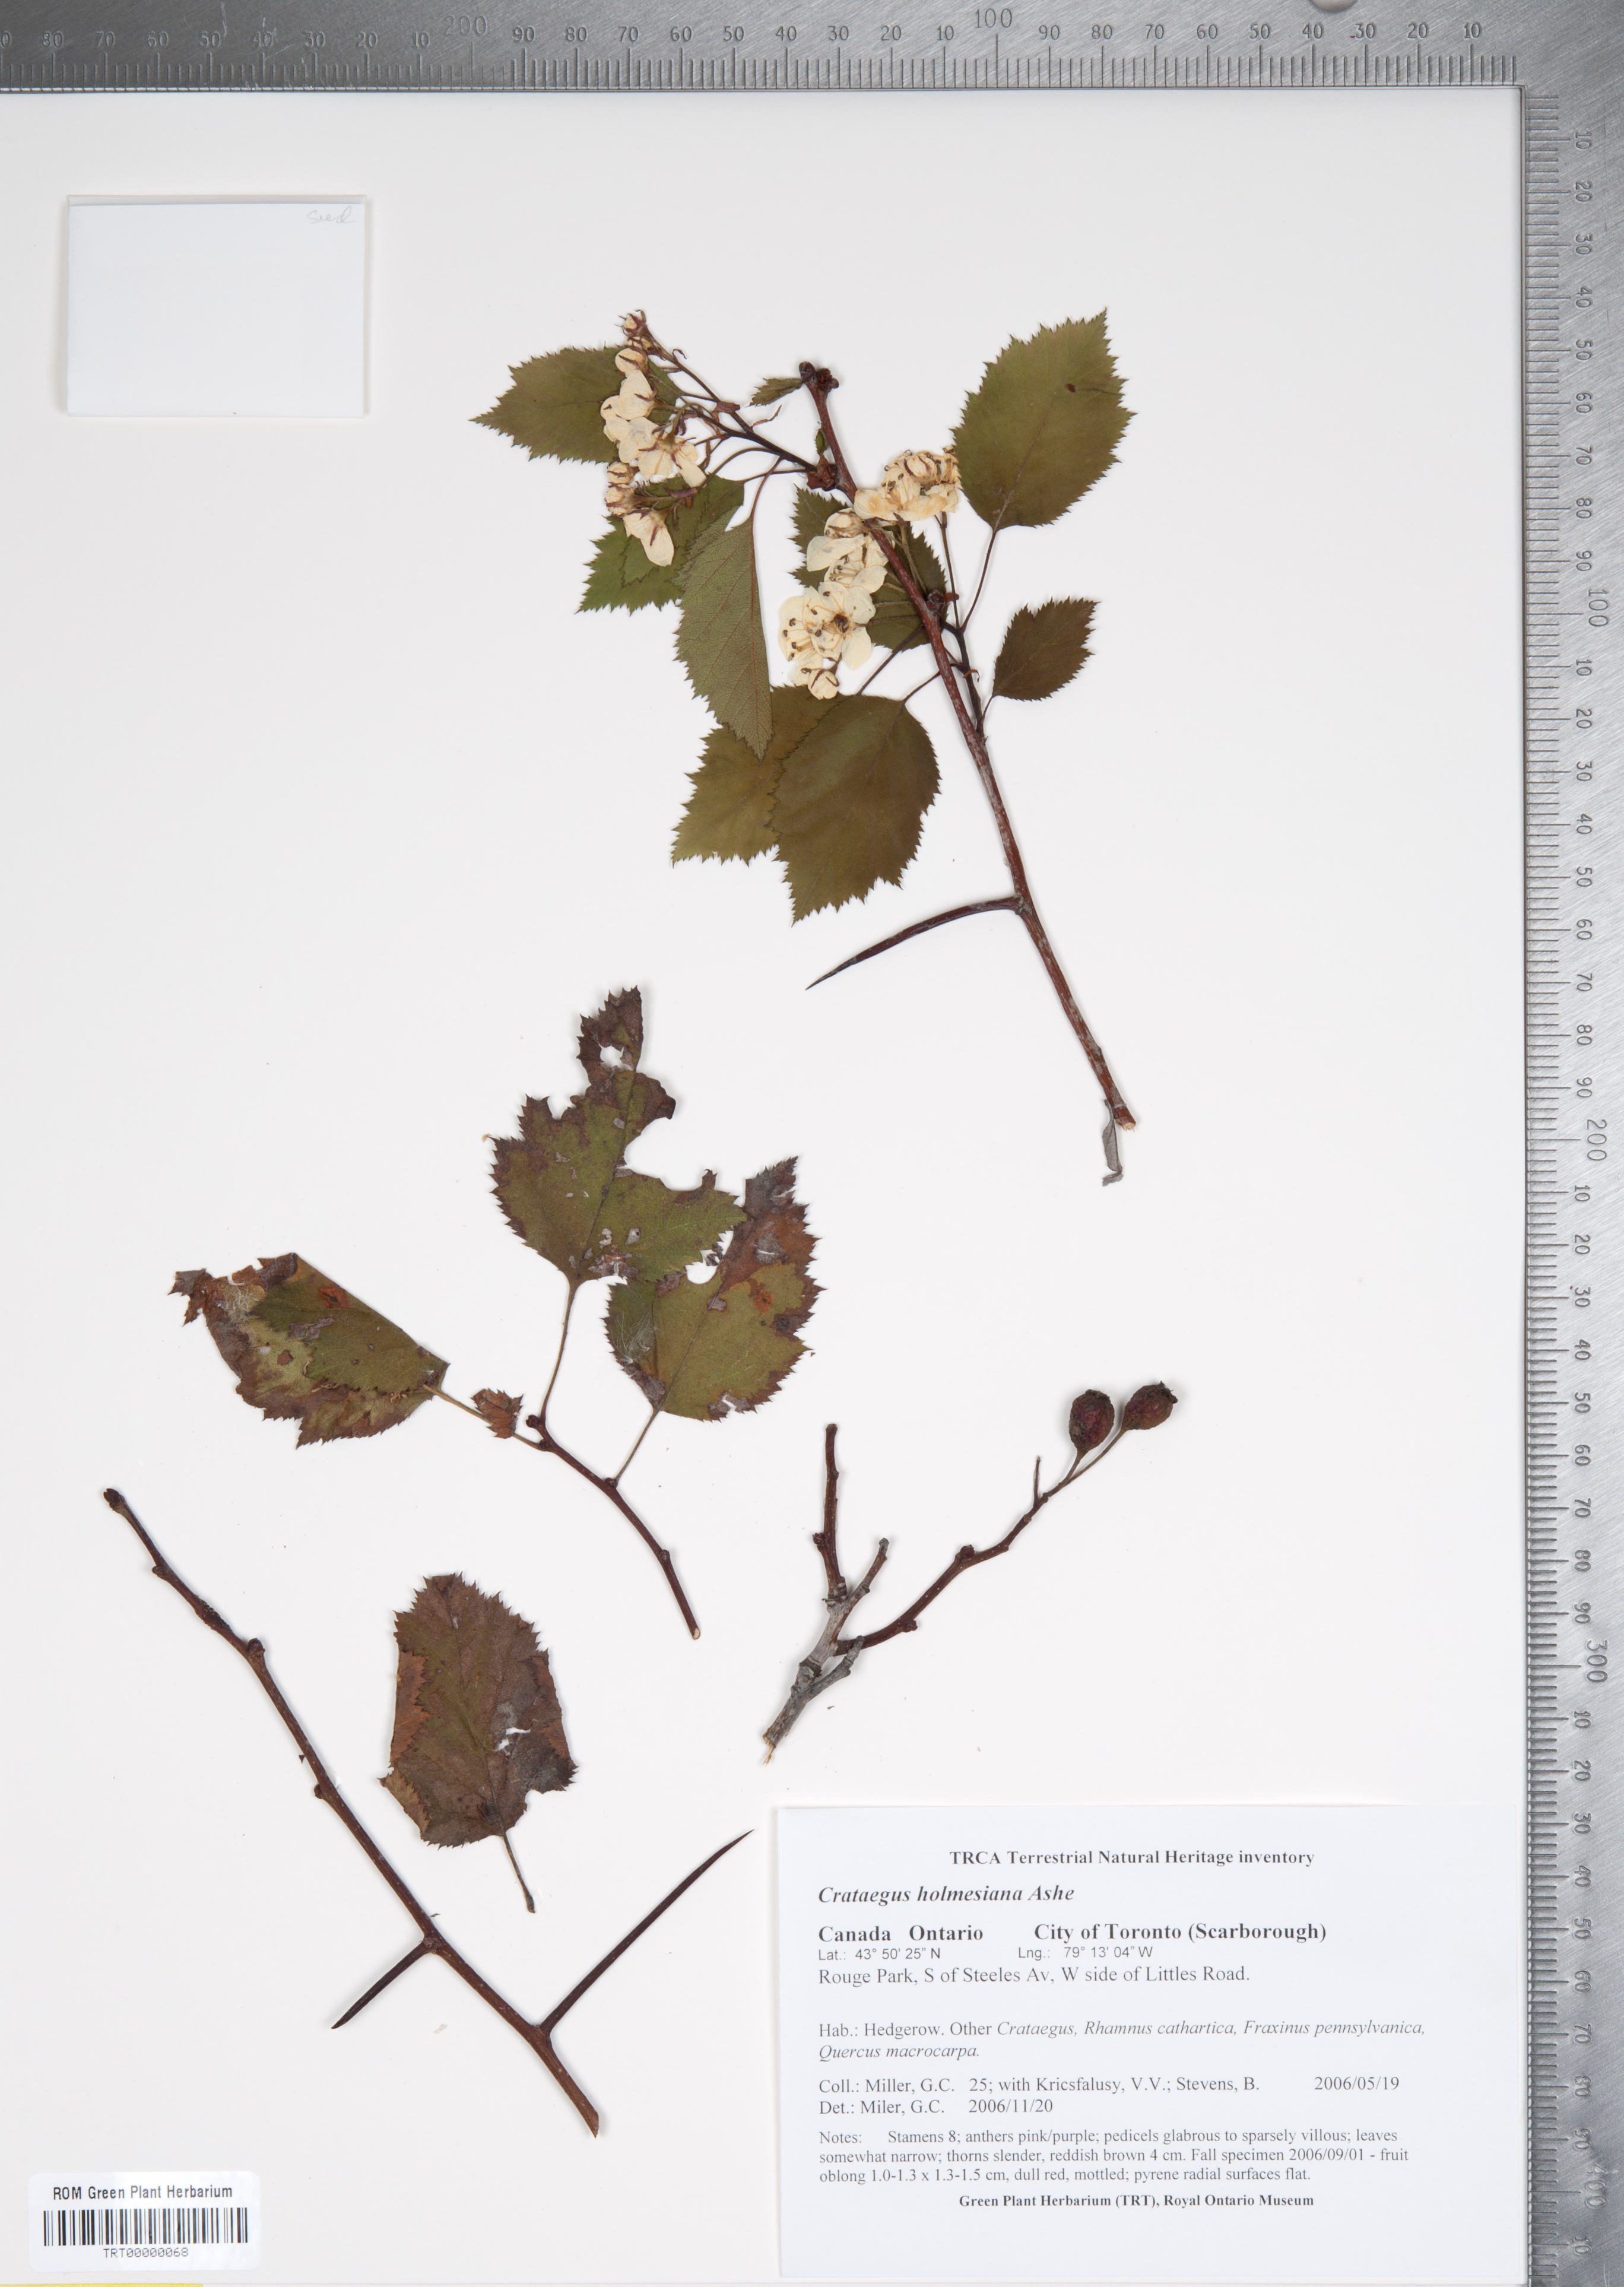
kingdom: Plantae
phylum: Tracheophyta
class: Magnoliopsida
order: Rosales
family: Rosaceae
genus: Crataegus
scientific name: Crataegus holmesiana
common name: Holmes' hawthorn
